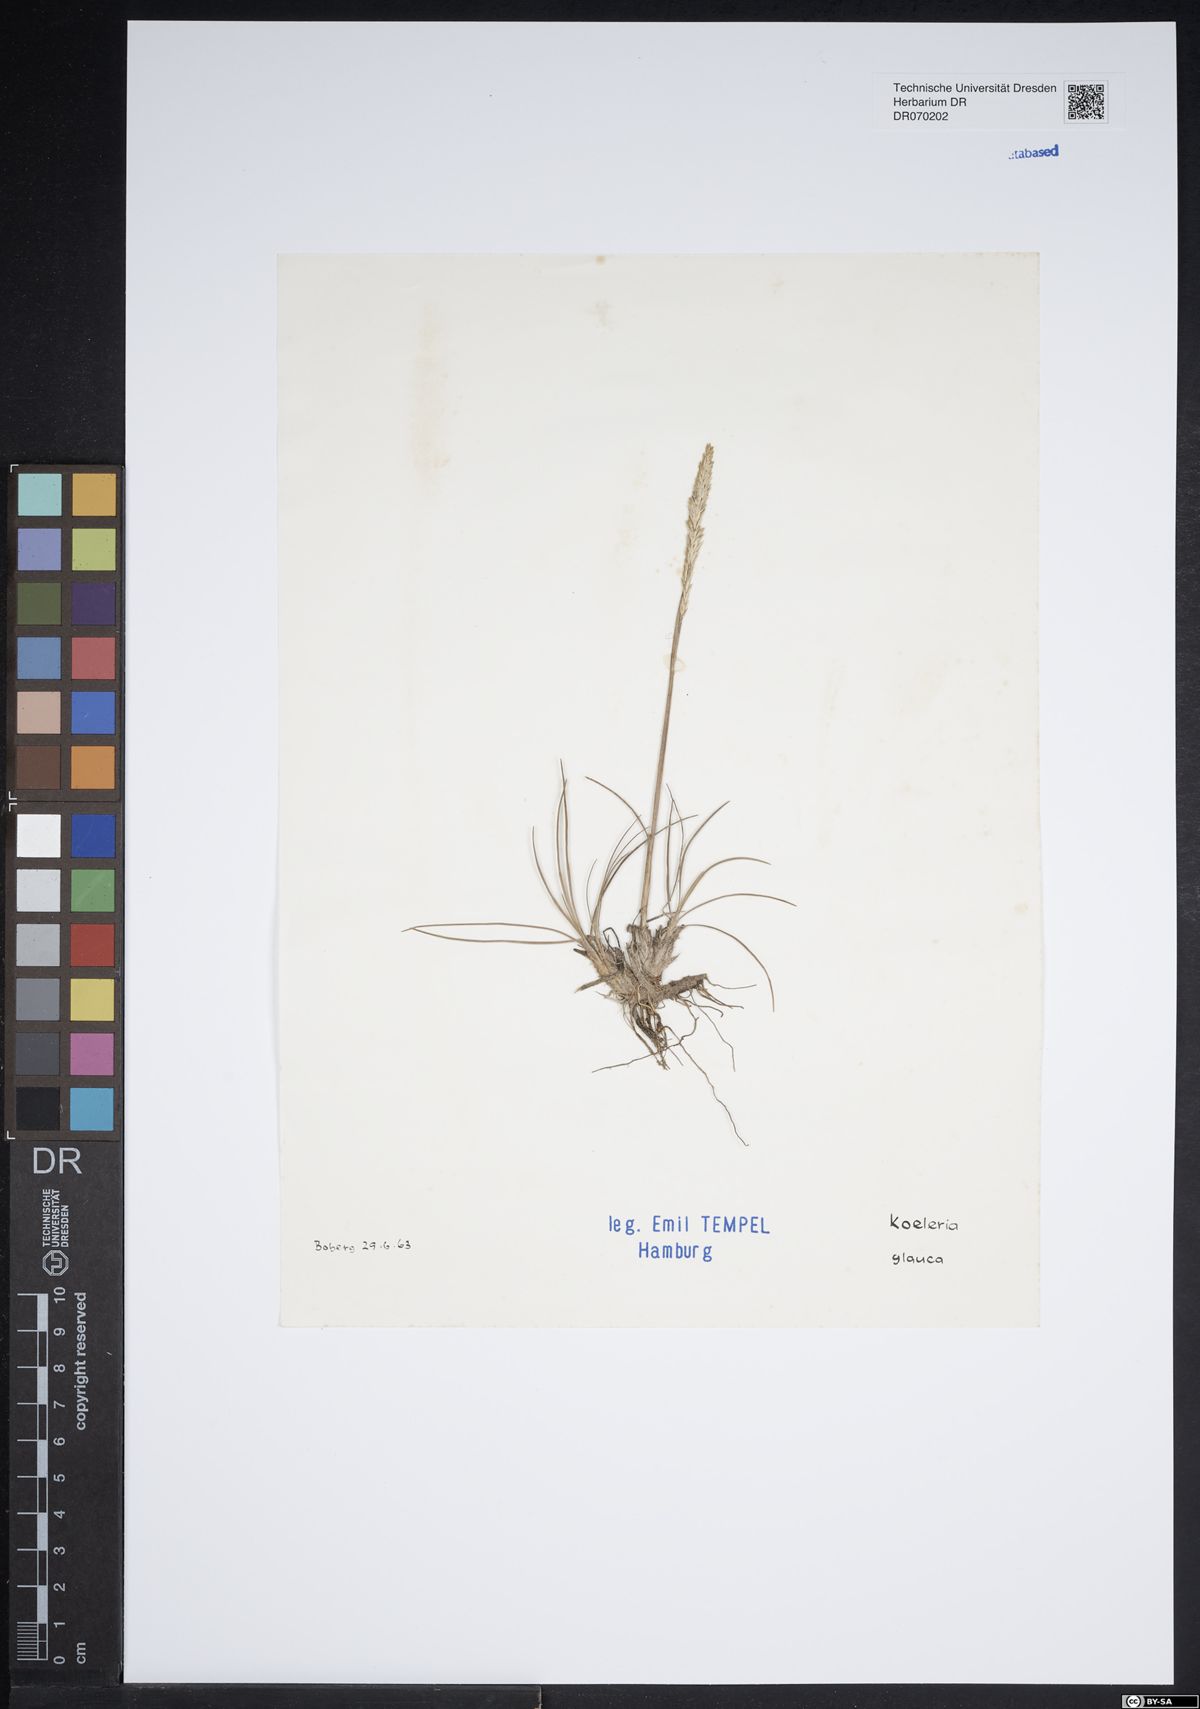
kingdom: Plantae
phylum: Tracheophyta
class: Liliopsida
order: Poales
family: Poaceae
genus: Koeleria
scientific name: Koeleria glauca
